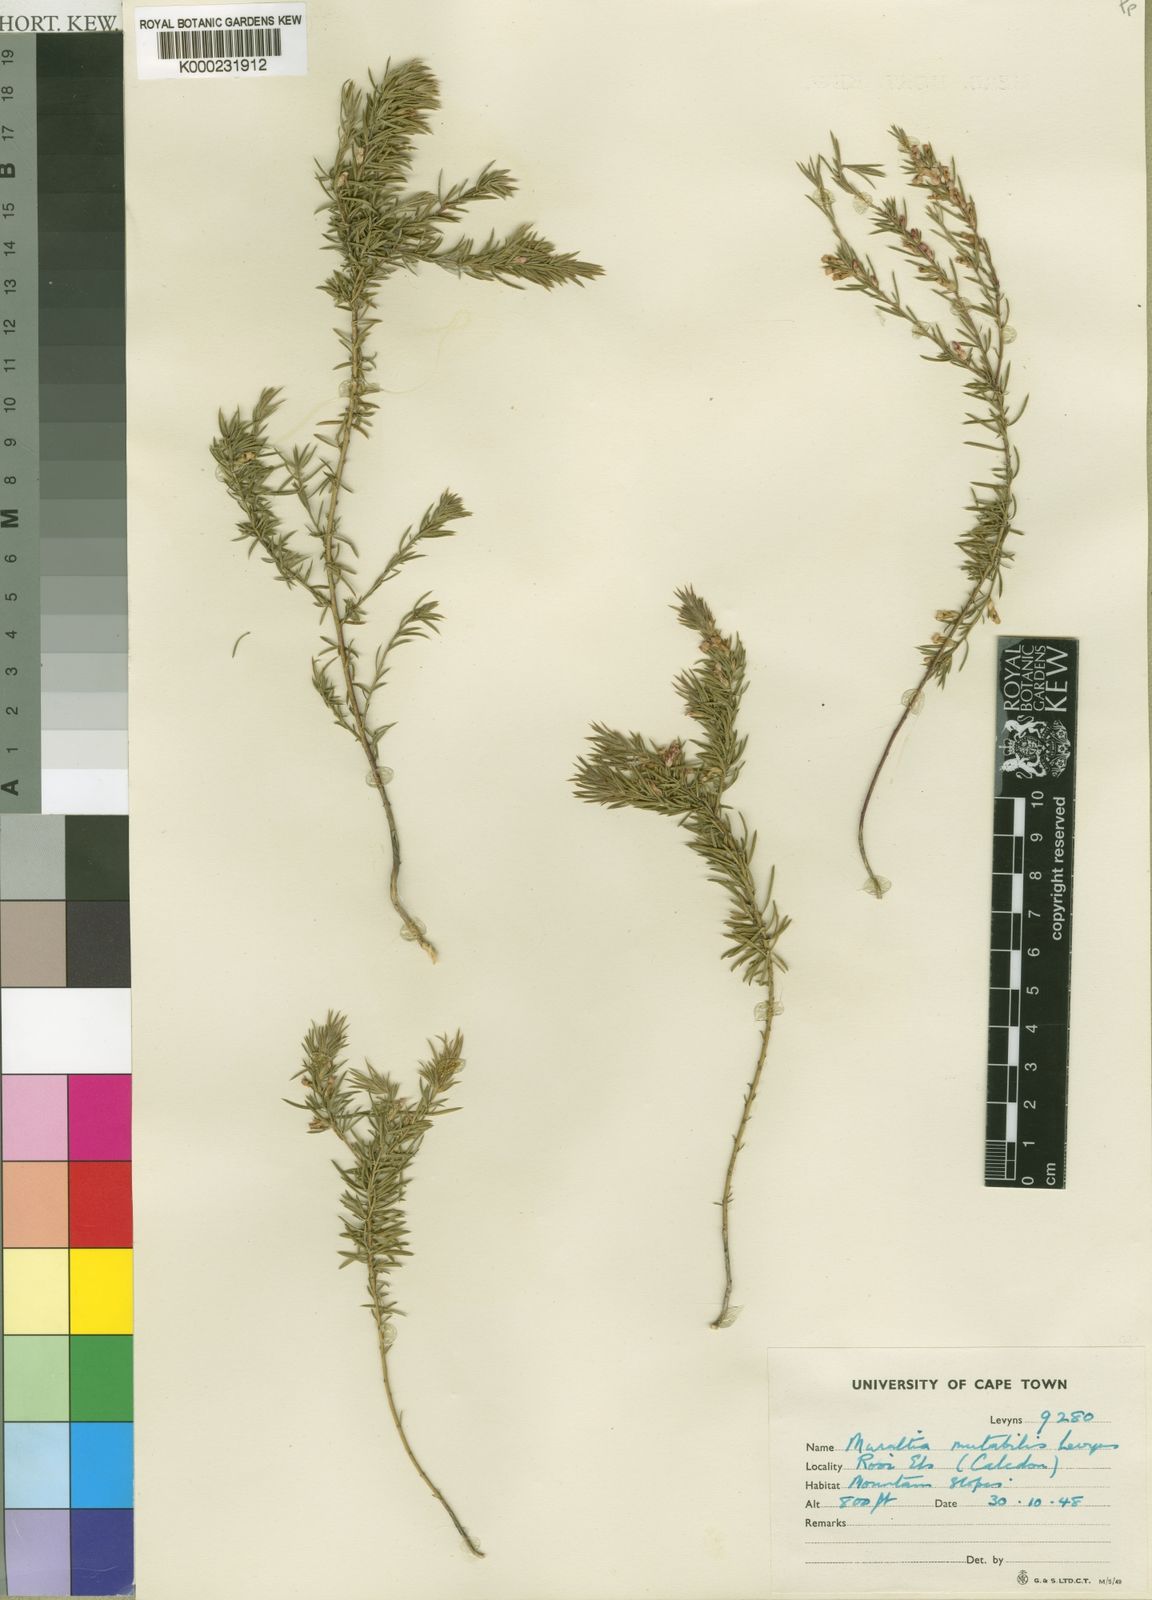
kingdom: Plantae
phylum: Tracheophyta
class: Magnoliopsida
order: Fabales
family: Polygalaceae
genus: Muraltia
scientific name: Muraltia mutabilis
